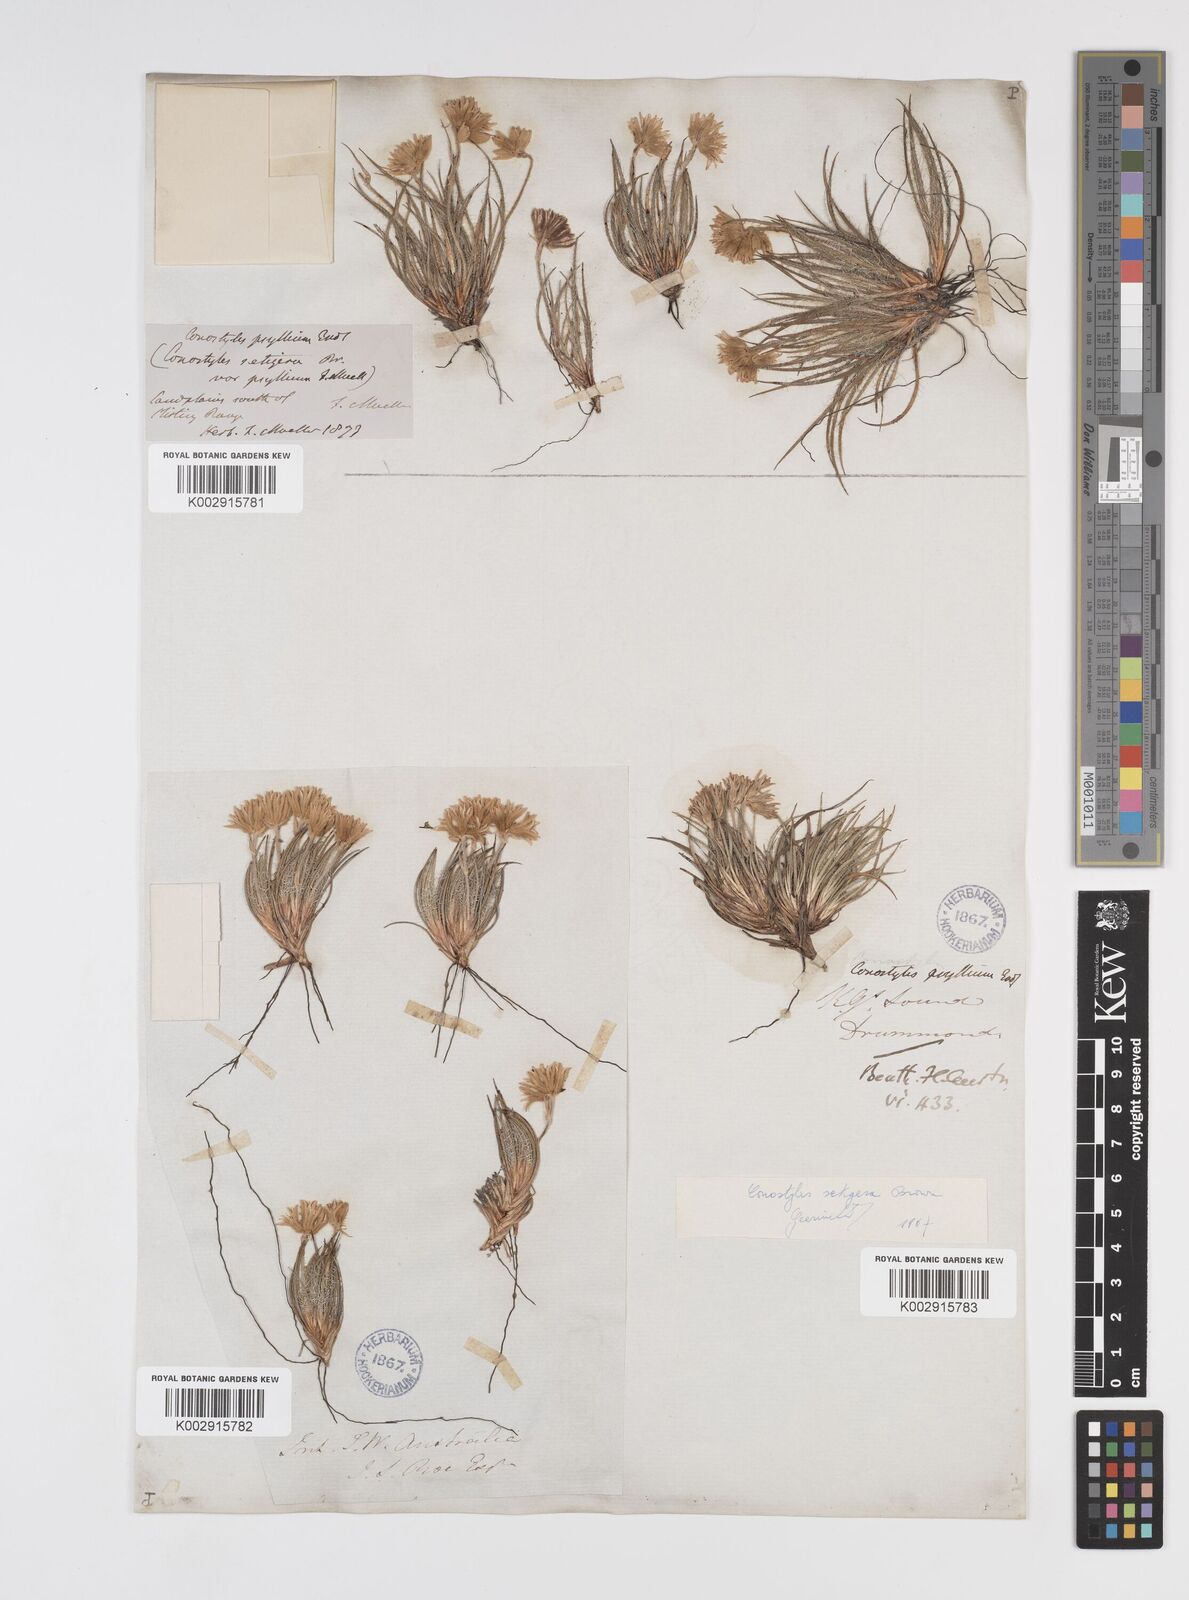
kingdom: Plantae
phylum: Tracheophyta
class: Liliopsida
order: Commelinales
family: Haemodoraceae
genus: Conostylis
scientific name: Conostylis setigera
